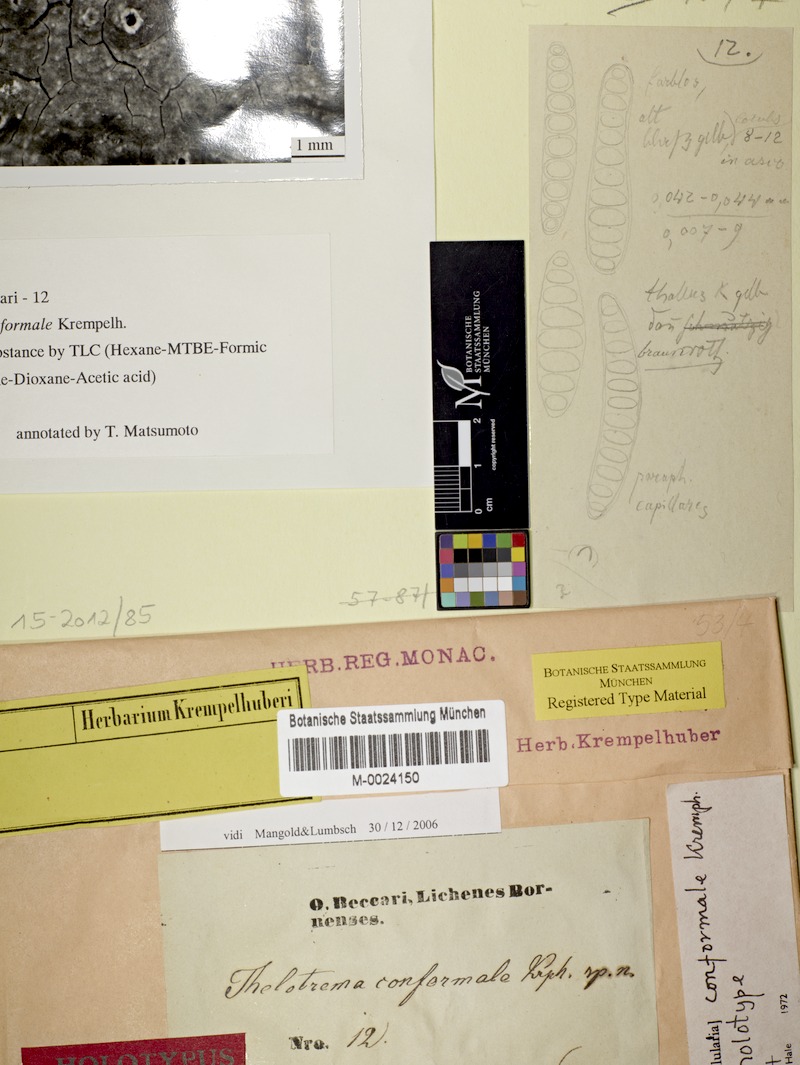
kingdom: Fungi
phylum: Ascomycota
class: Lecanoromycetes
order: Ostropales
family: Graphidaceae
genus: Ocellularia
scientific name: Ocellularia conformalis
